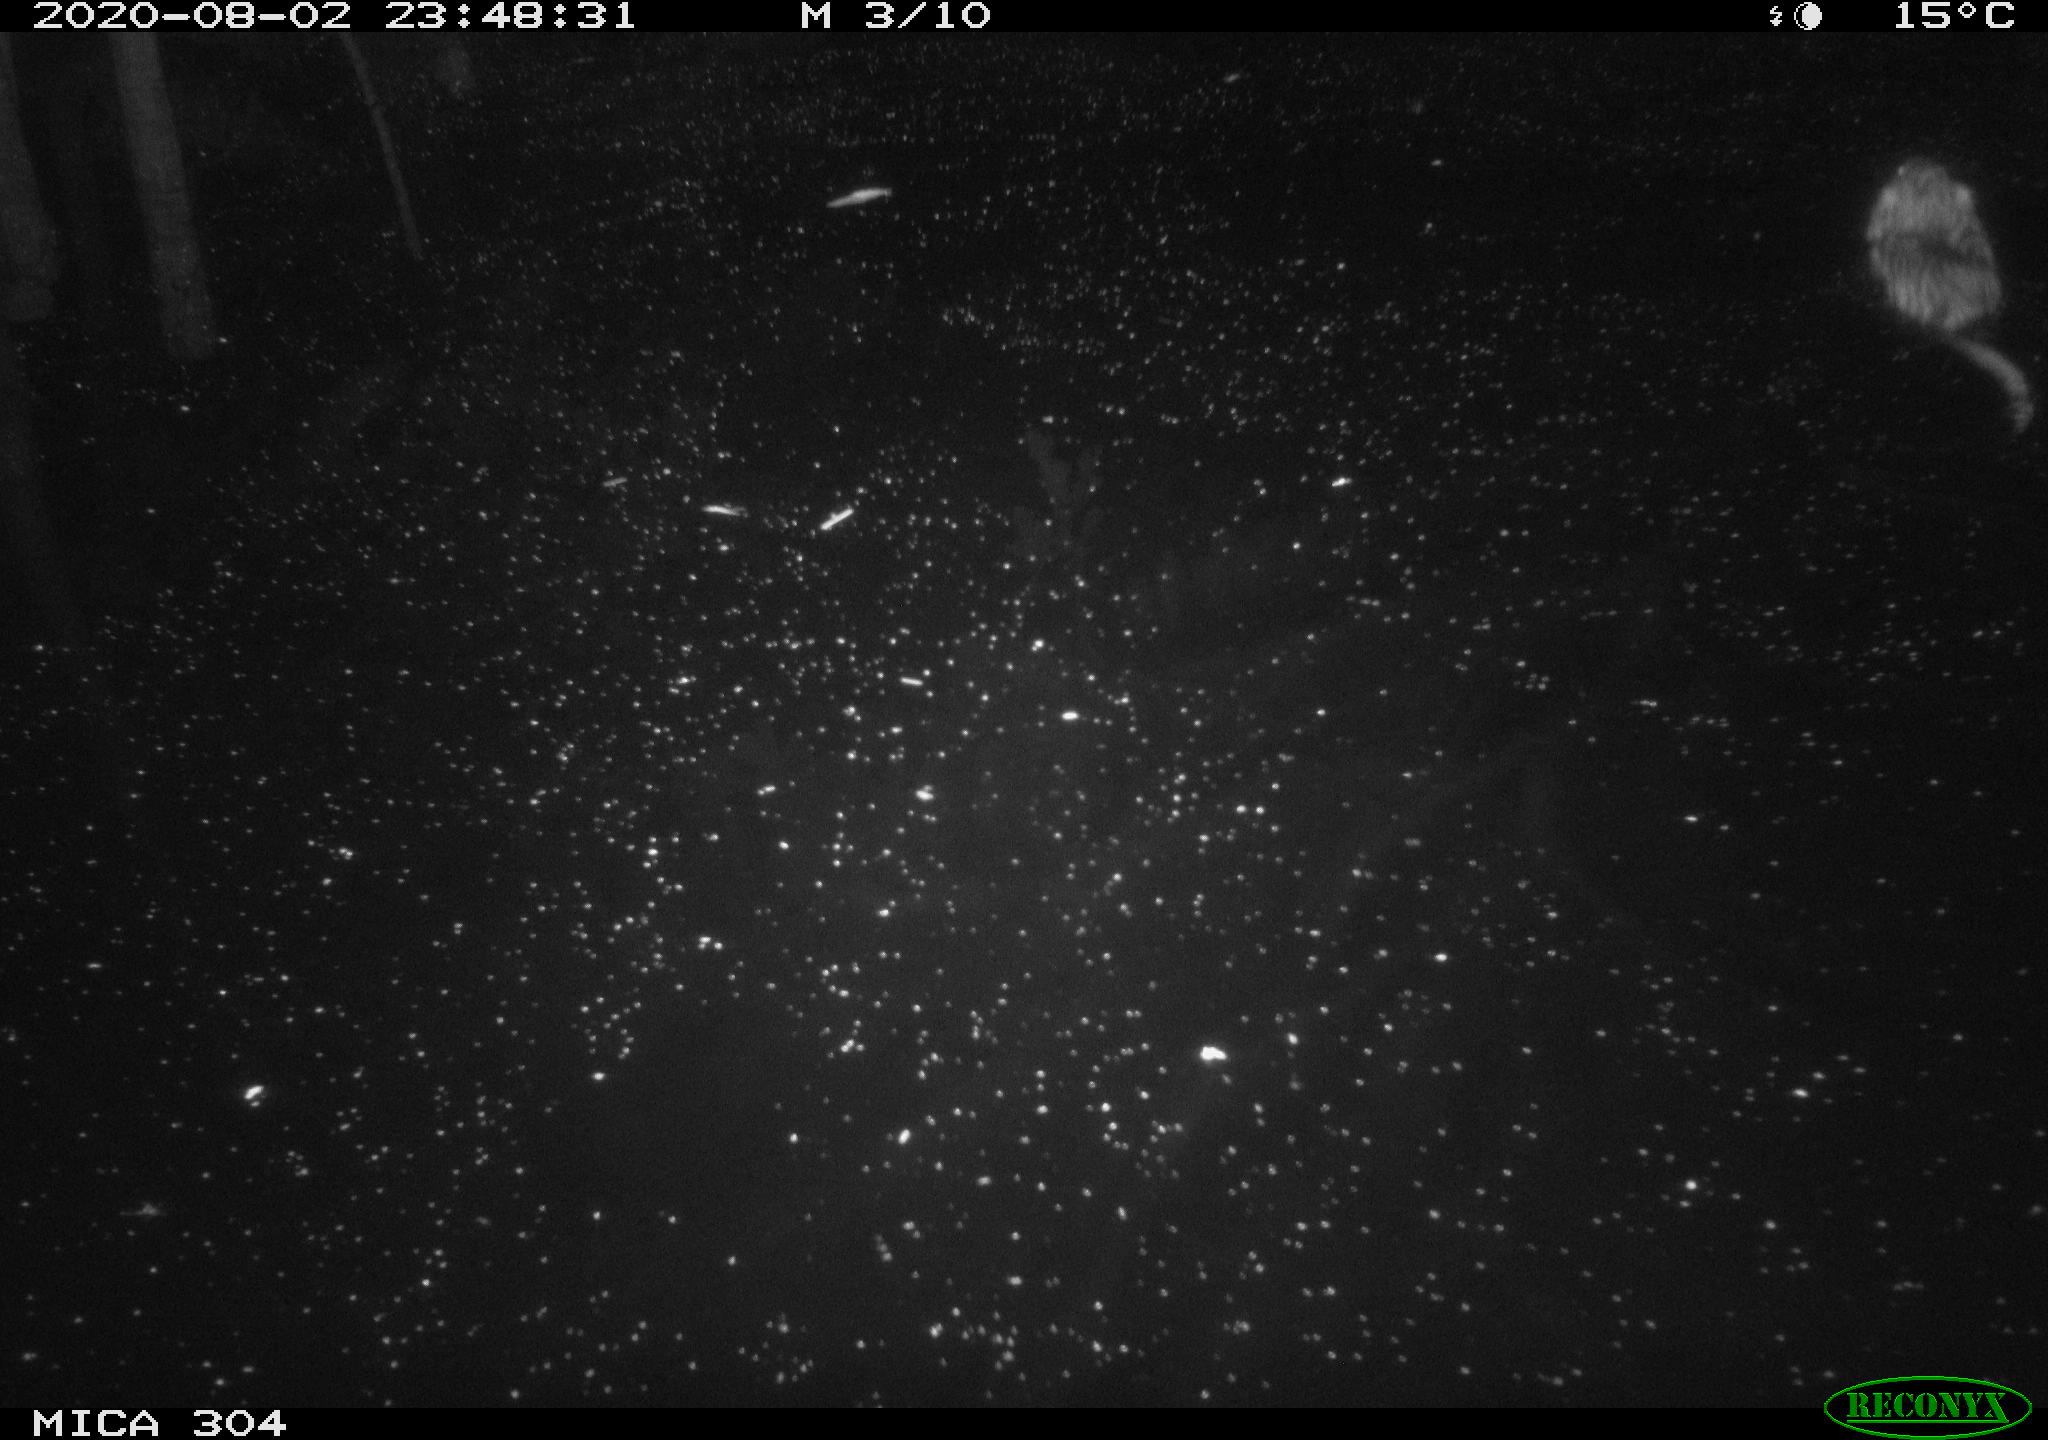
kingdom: Animalia
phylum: Chordata
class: Mammalia
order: Rodentia
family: Cricetidae
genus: Ondatra
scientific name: Ondatra zibethicus
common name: Muskrat
